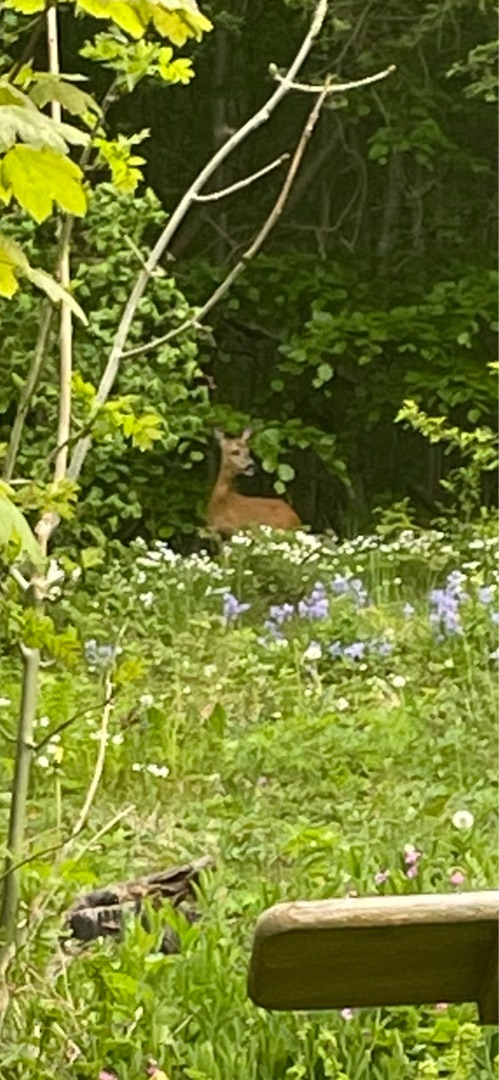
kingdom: Animalia
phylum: Chordata
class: Mammalia
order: Artiodactyla
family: Cervidae
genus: Capreolus
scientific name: Capreolus capreolus
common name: Rådyr
